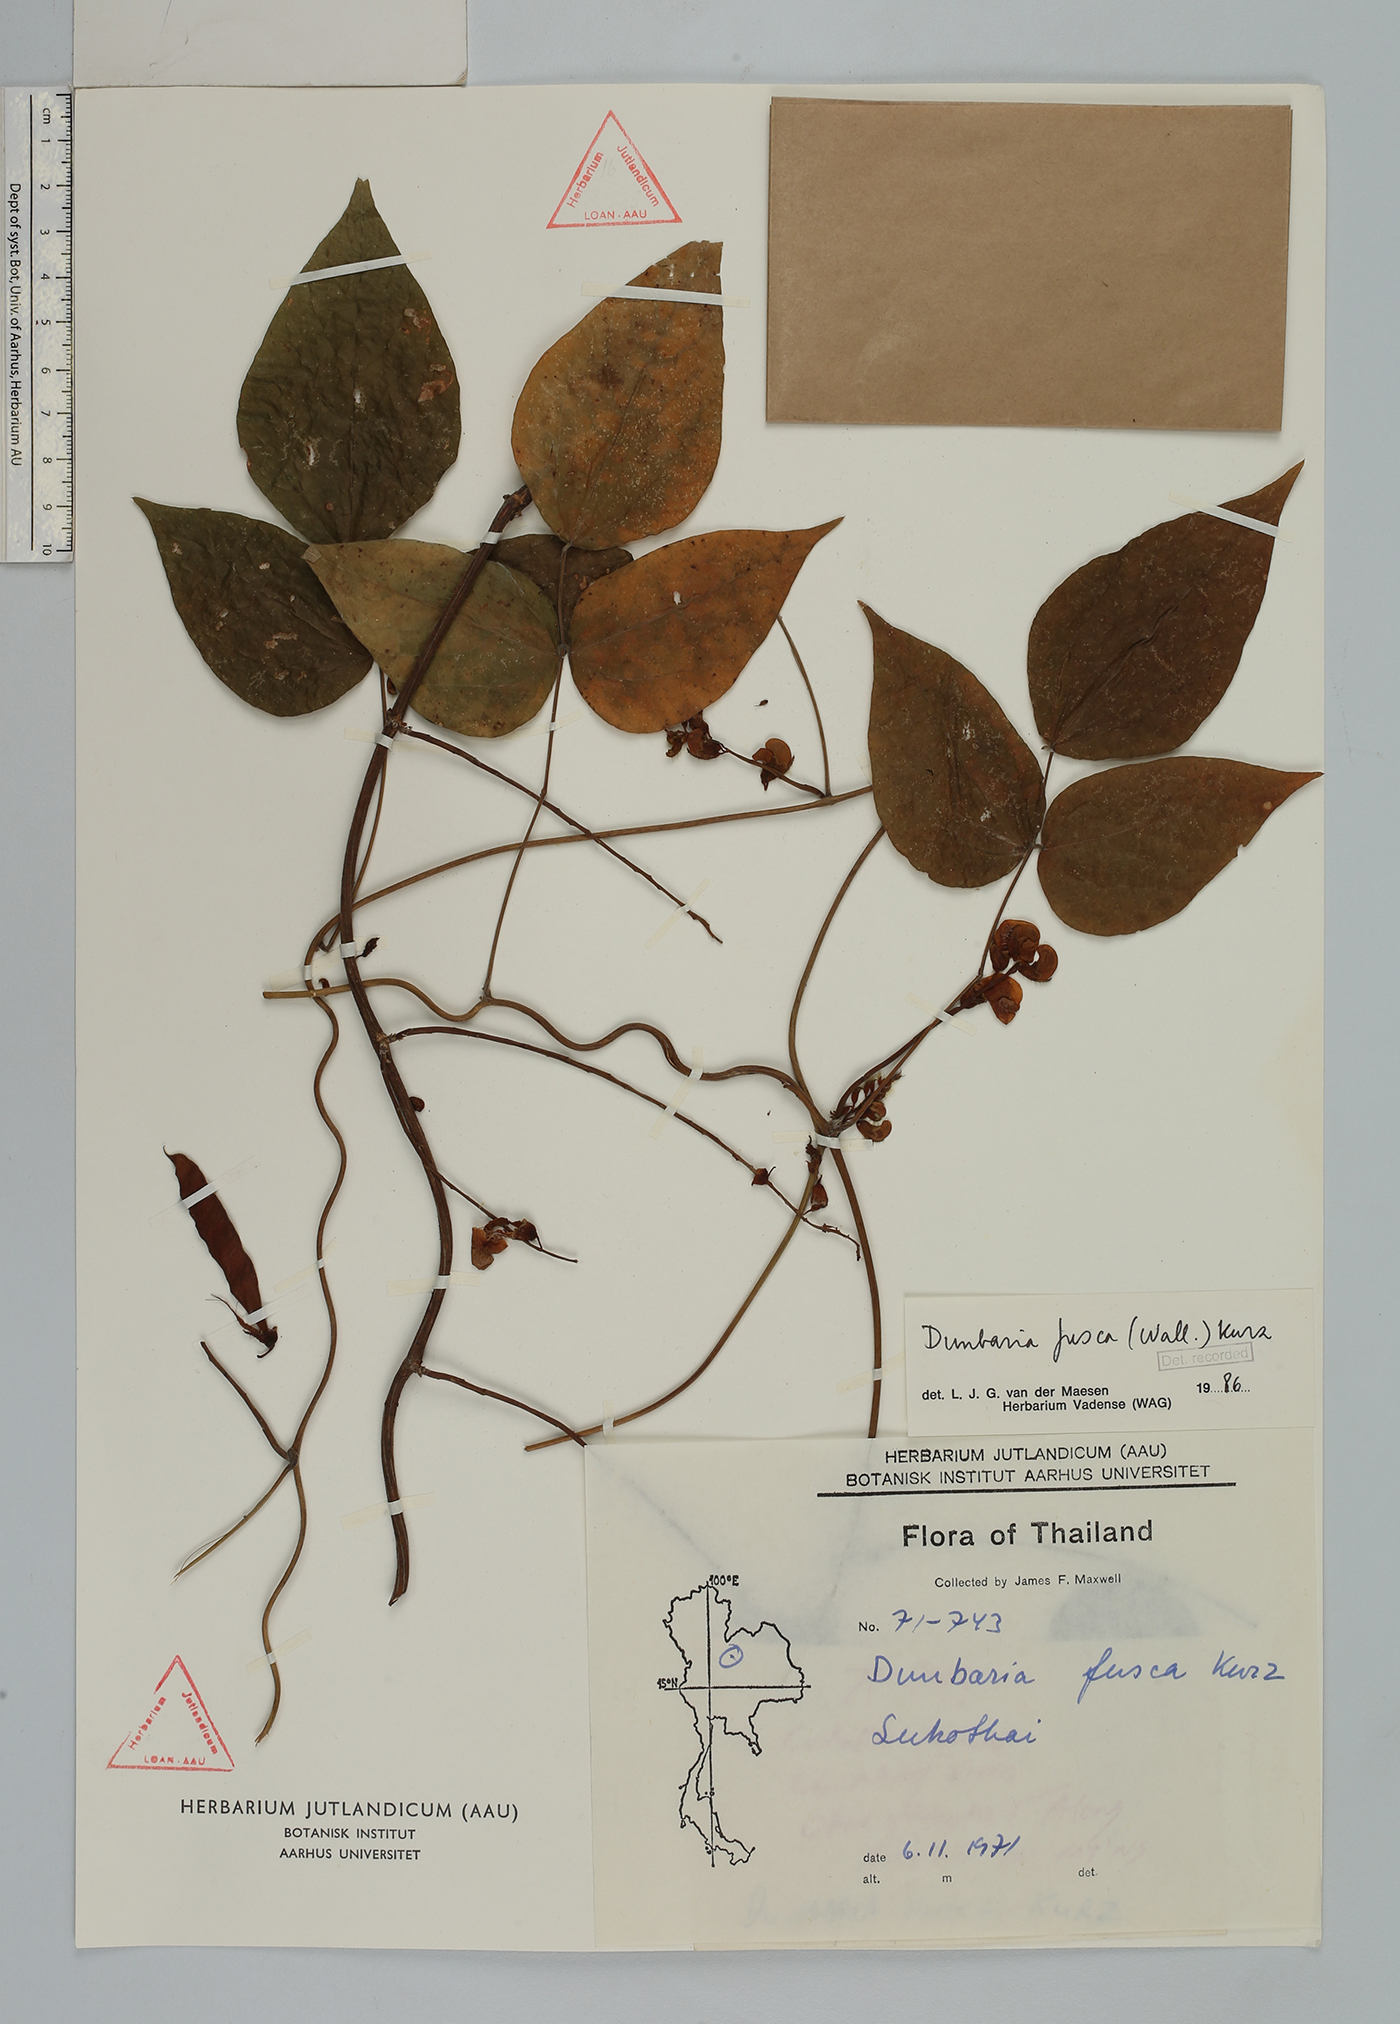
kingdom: Plantae
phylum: Tracheophyta
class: Magnoliopsida
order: Fabales
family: Fabaceae
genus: Dunbaria
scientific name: Dunbaria fusca
